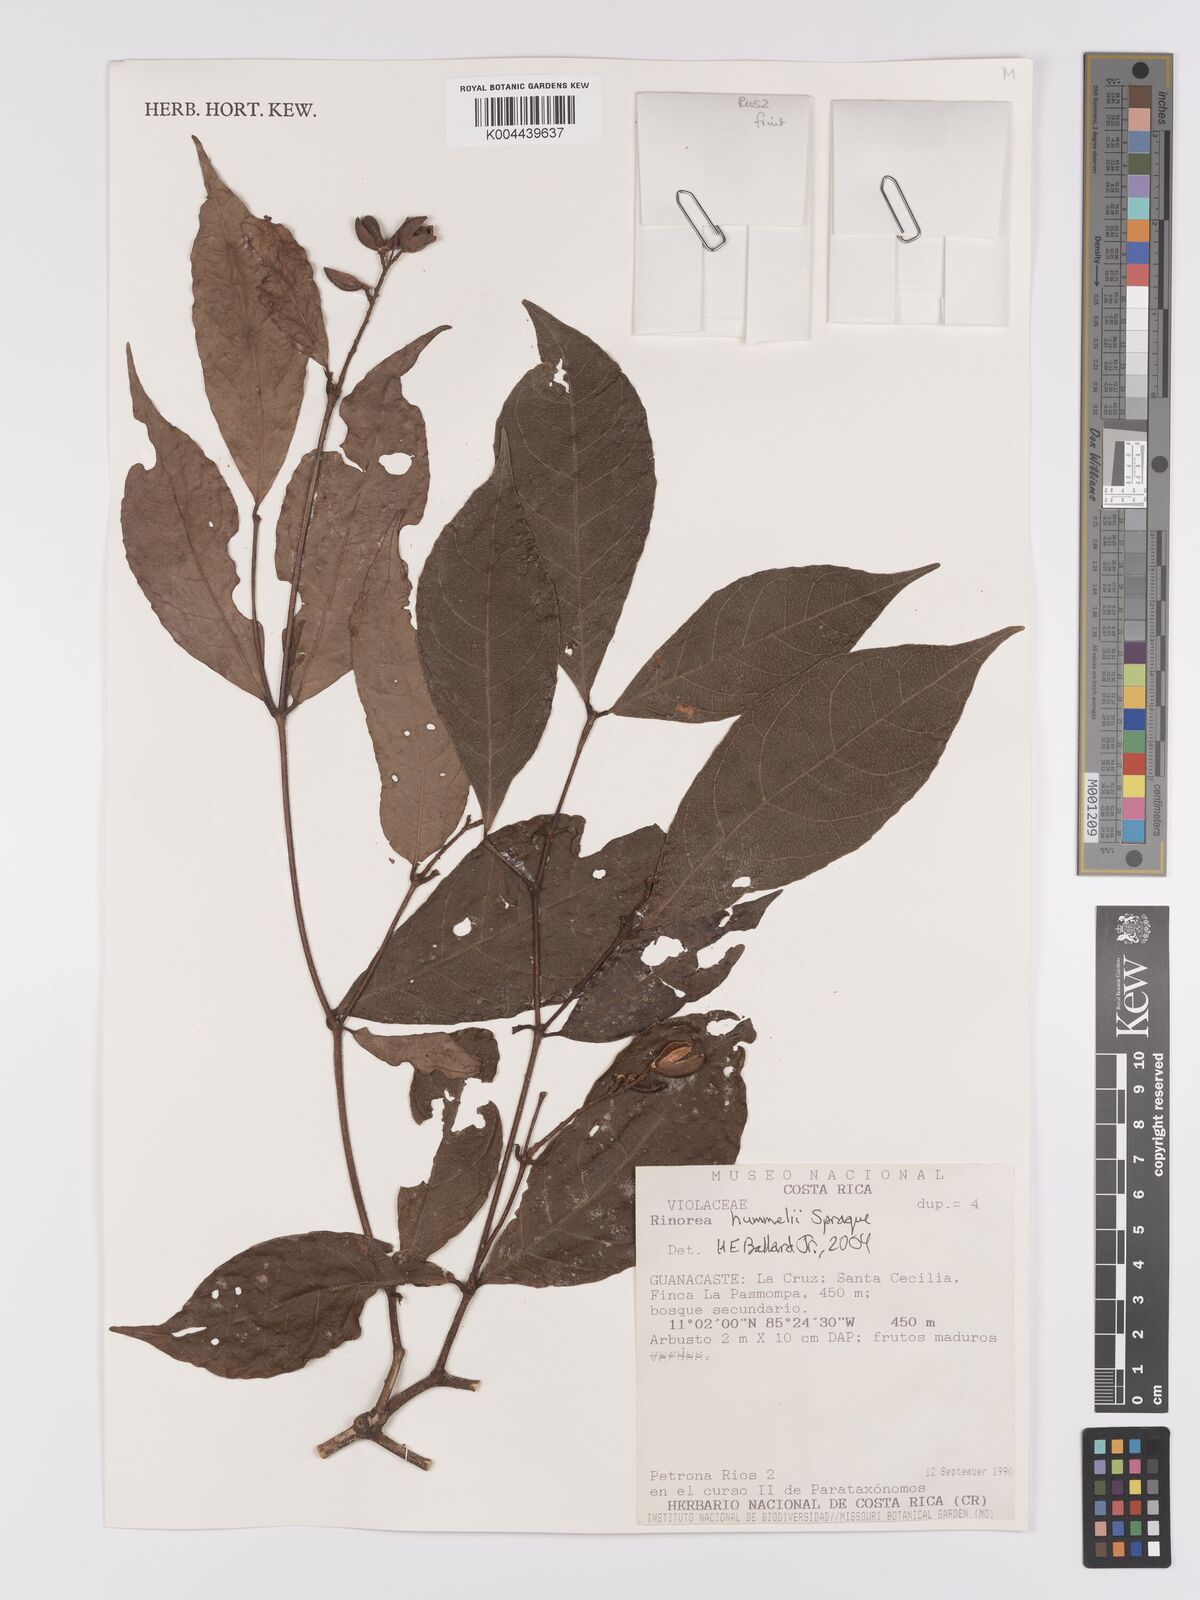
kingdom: Plantae
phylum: Tracheophyta
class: Magnoliopsida
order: Malpighiales
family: Violaceae
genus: Rinorea
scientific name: Rinorea hummelii
